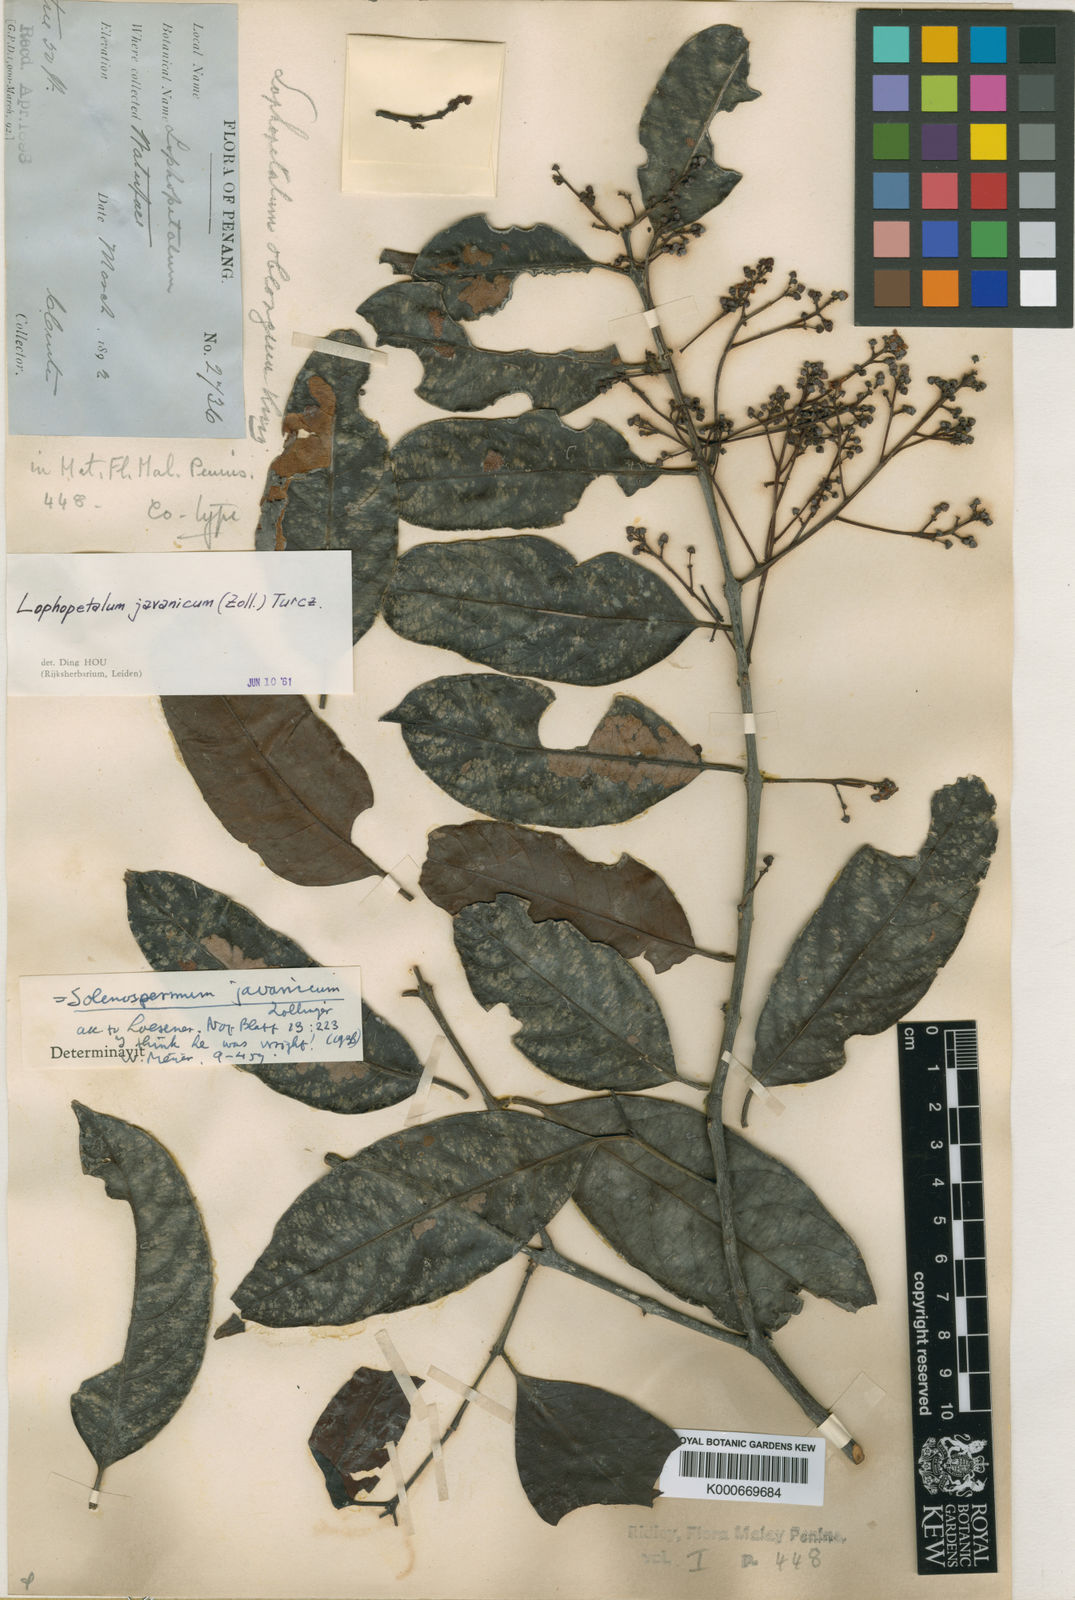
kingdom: Plantae
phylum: Tracheophyta
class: Magnoliopsida
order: Celastrales
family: Celastraceae
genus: Lophopetalum
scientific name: Lophopetalum
